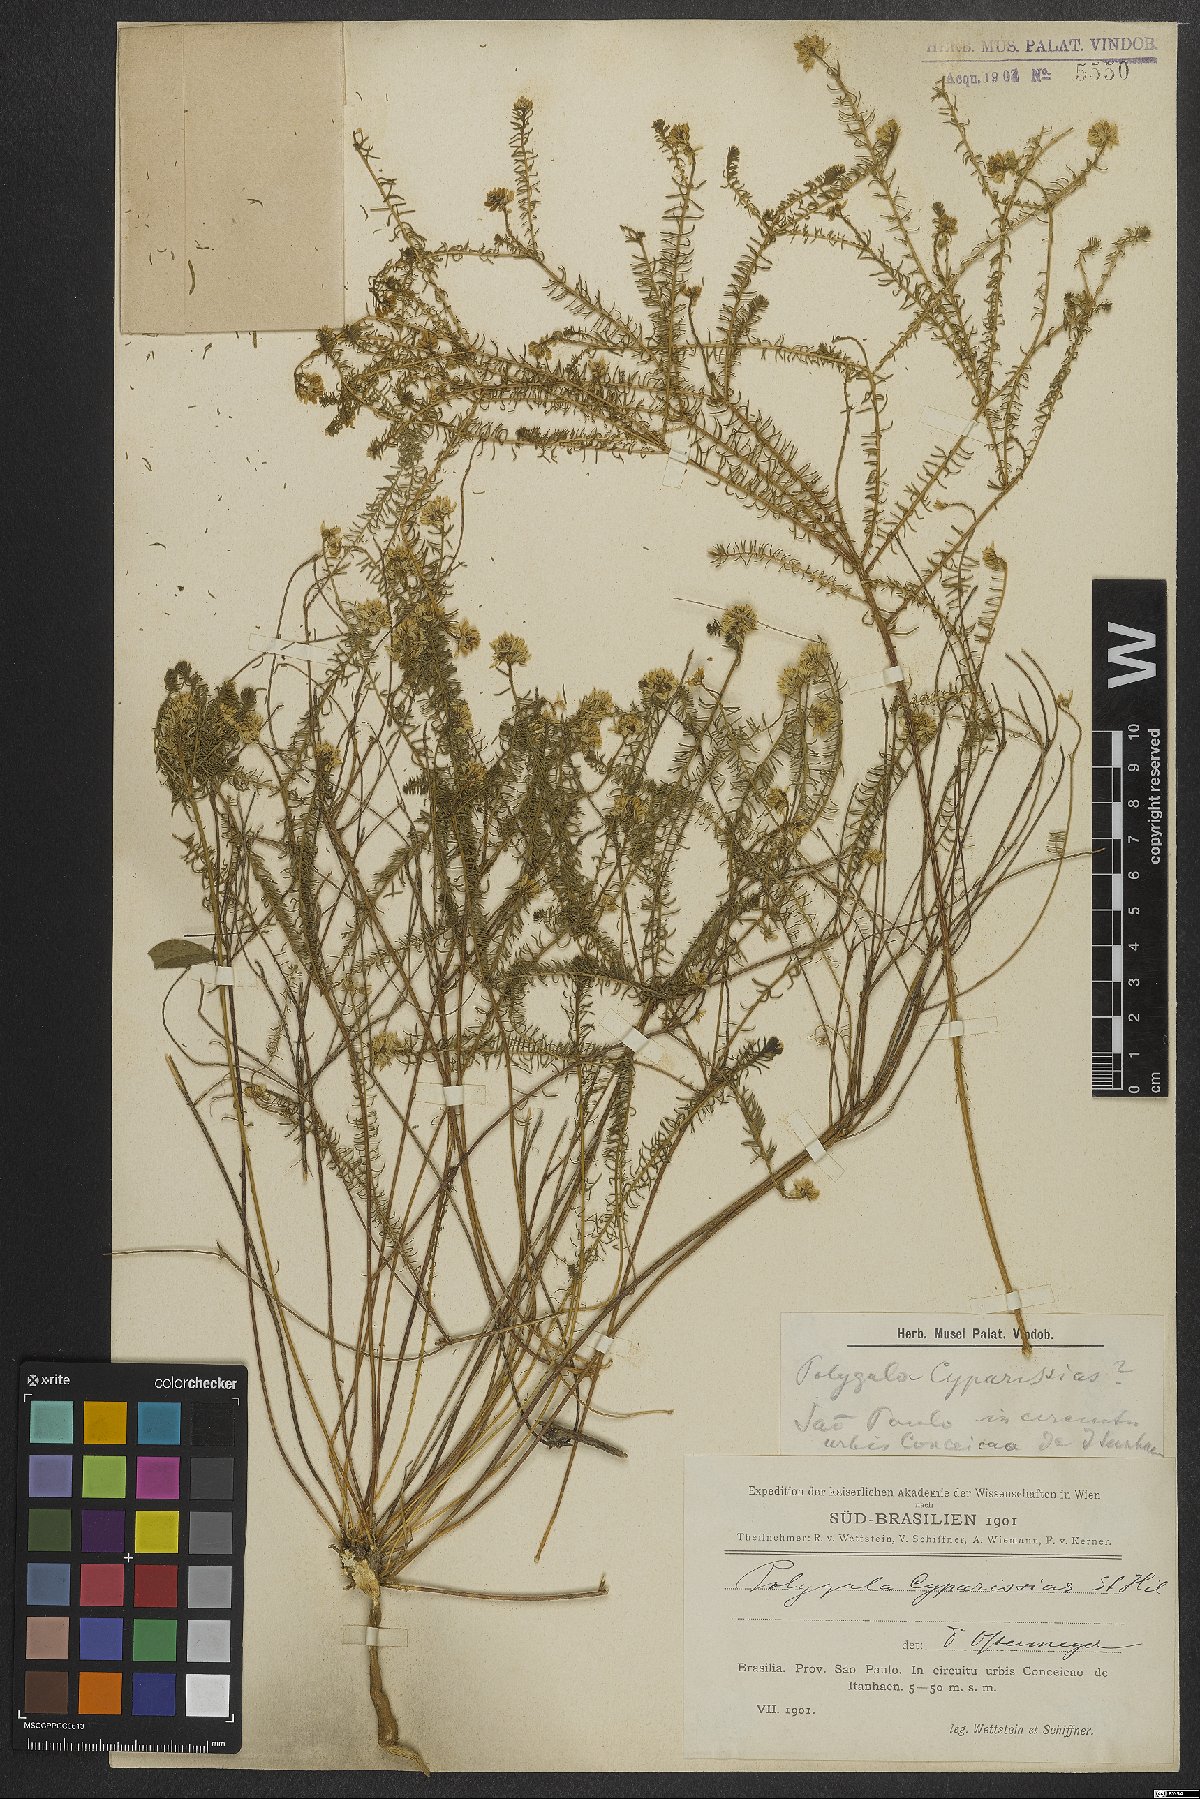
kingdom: Plantae
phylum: Tracheophyta
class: Magnoliopsida
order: Fabales
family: Polygalaceae
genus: Polygala
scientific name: Polygala cyparissias
